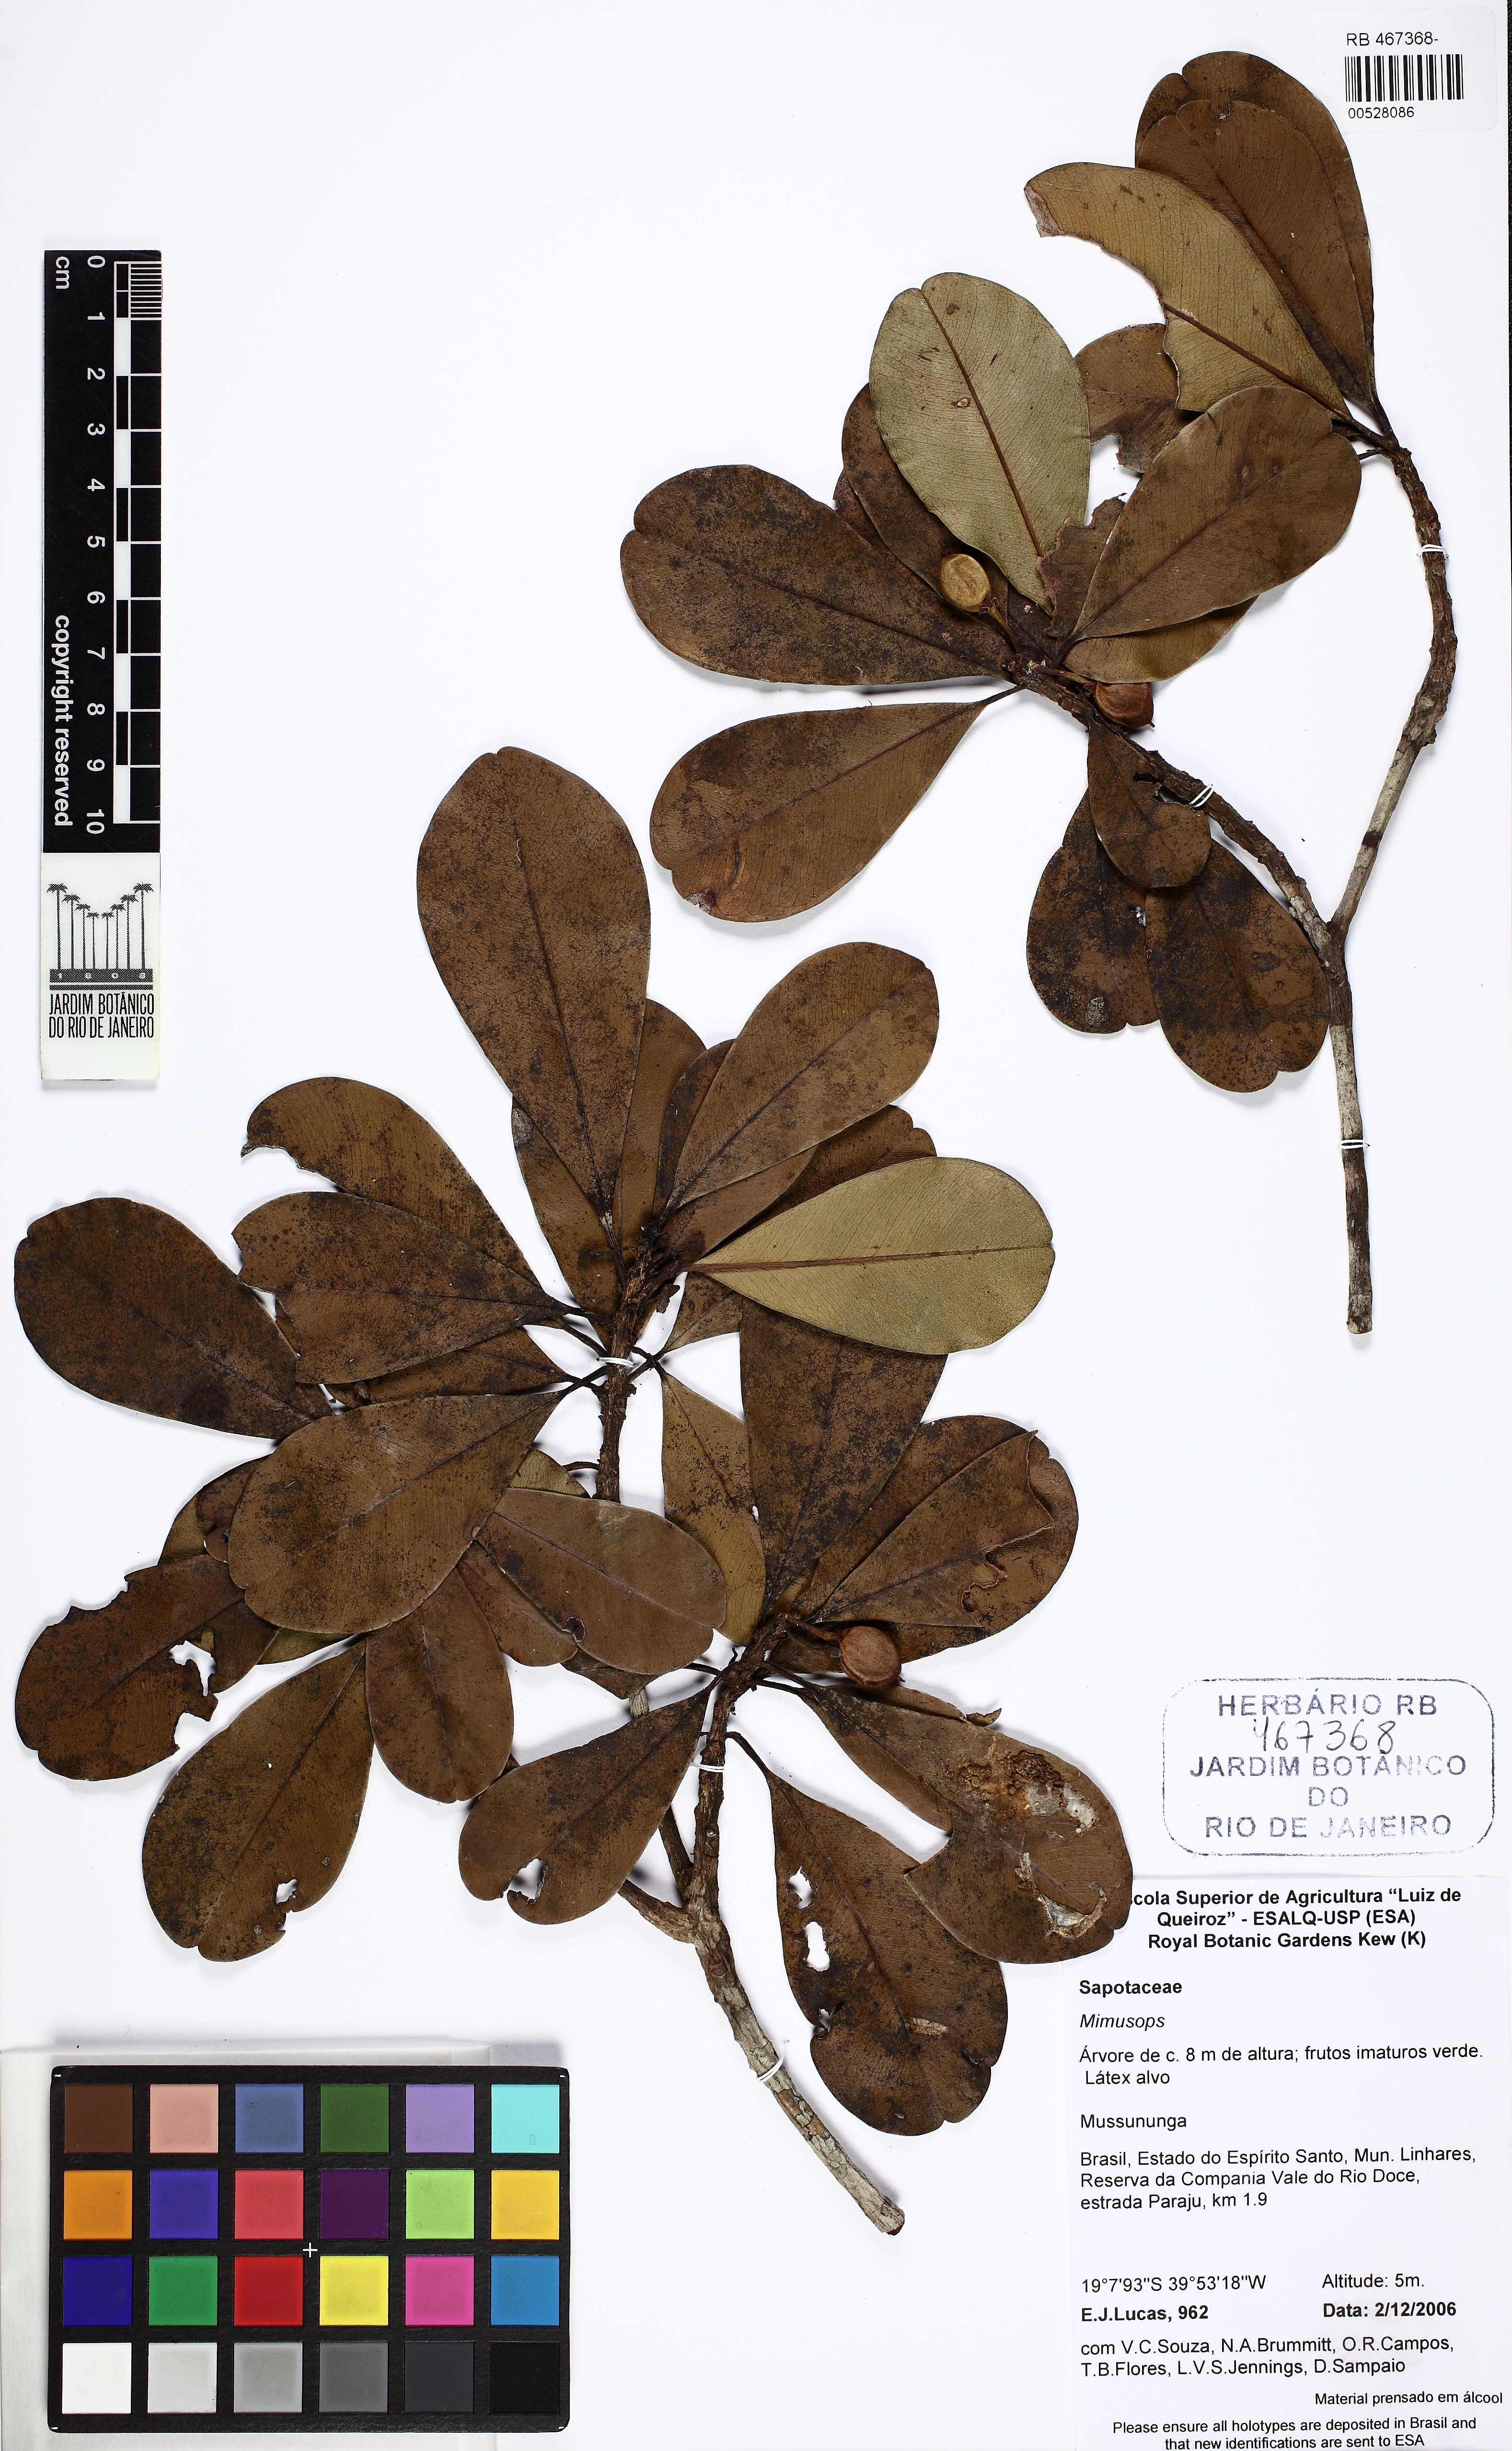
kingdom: Plantae
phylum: Tracheophyta
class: Magnoliopsida
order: Ericales
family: Sapotaceae
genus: Mimusops
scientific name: Mimusops
